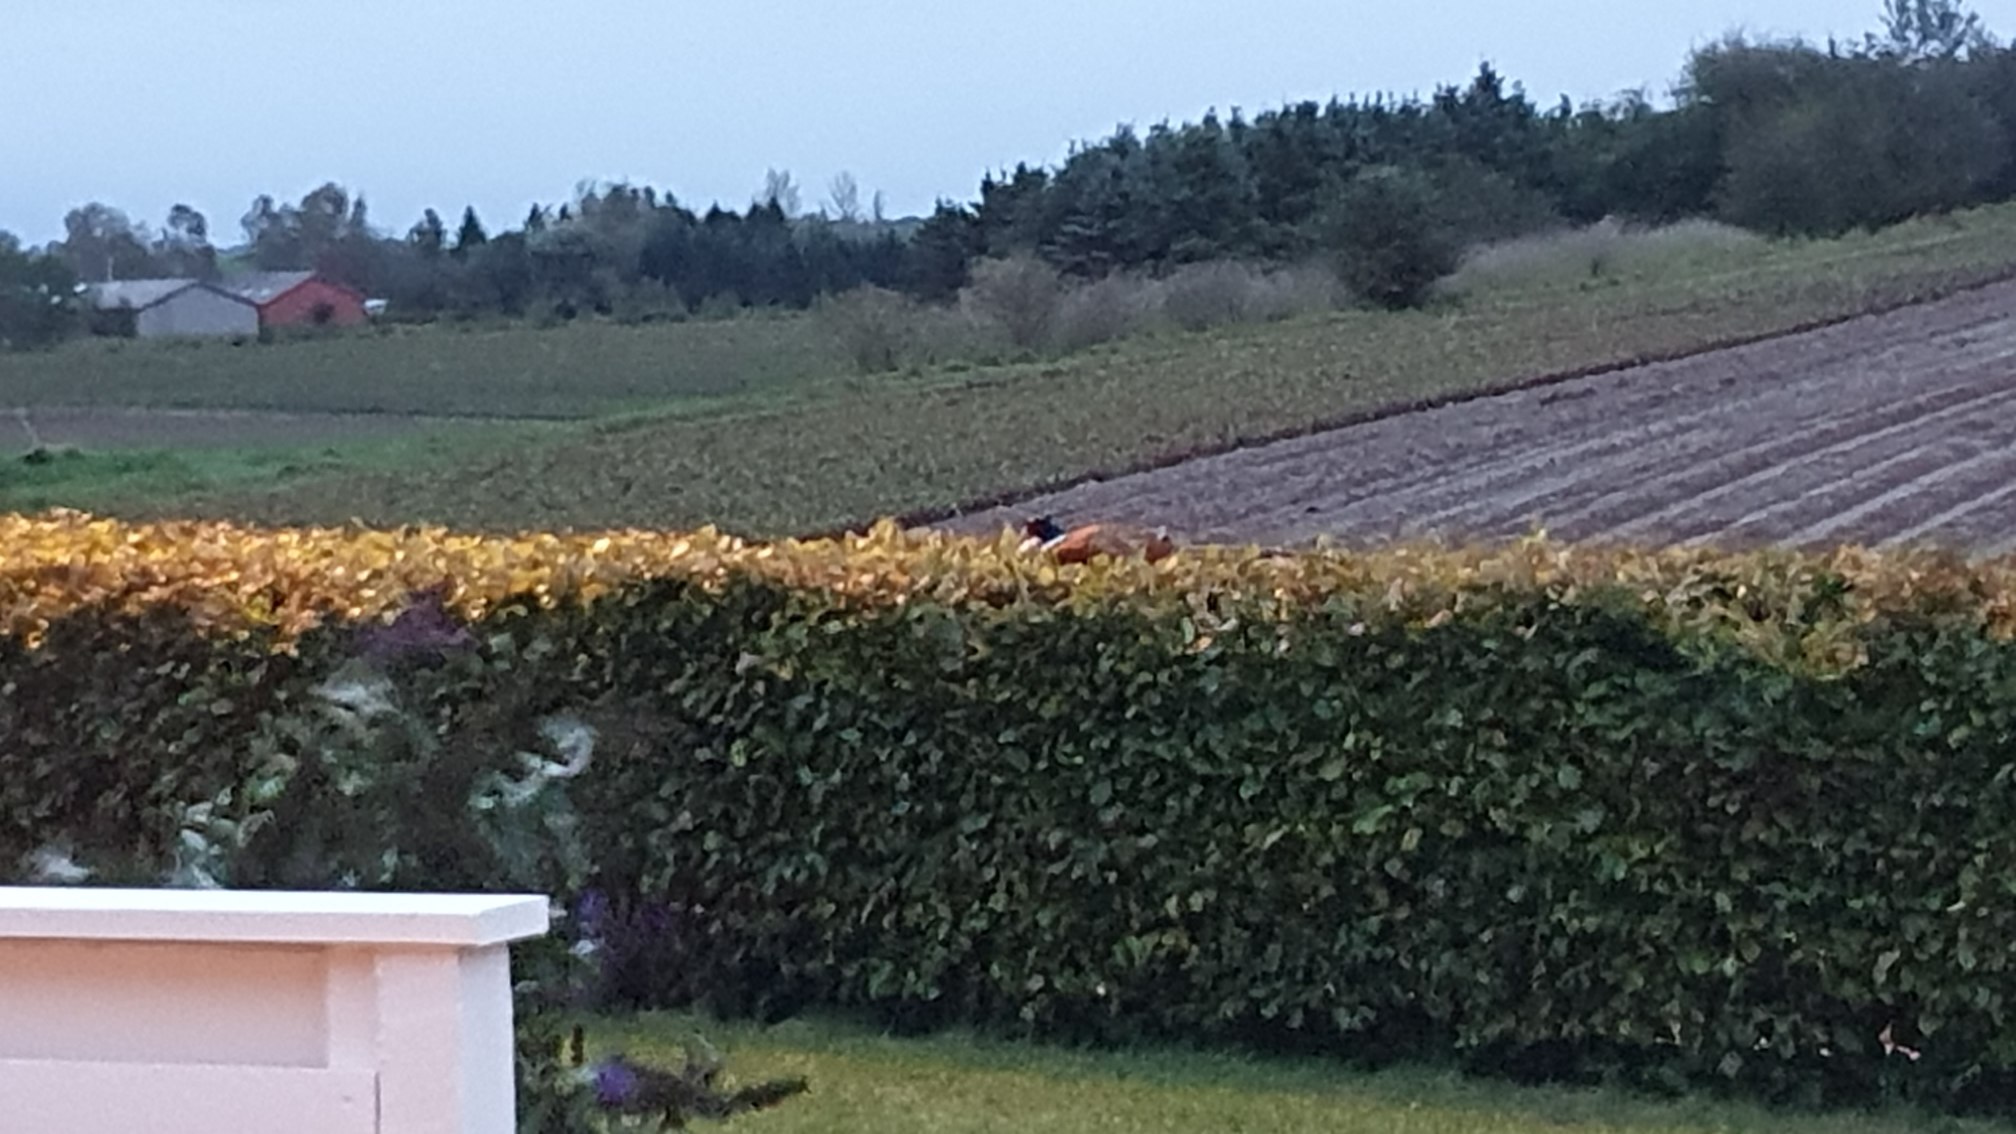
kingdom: Animalia
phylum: Chordata
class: Aves
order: Galliformes
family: Phasianidae
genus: Phasianus
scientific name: Phasianus colchicus
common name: Fasan
